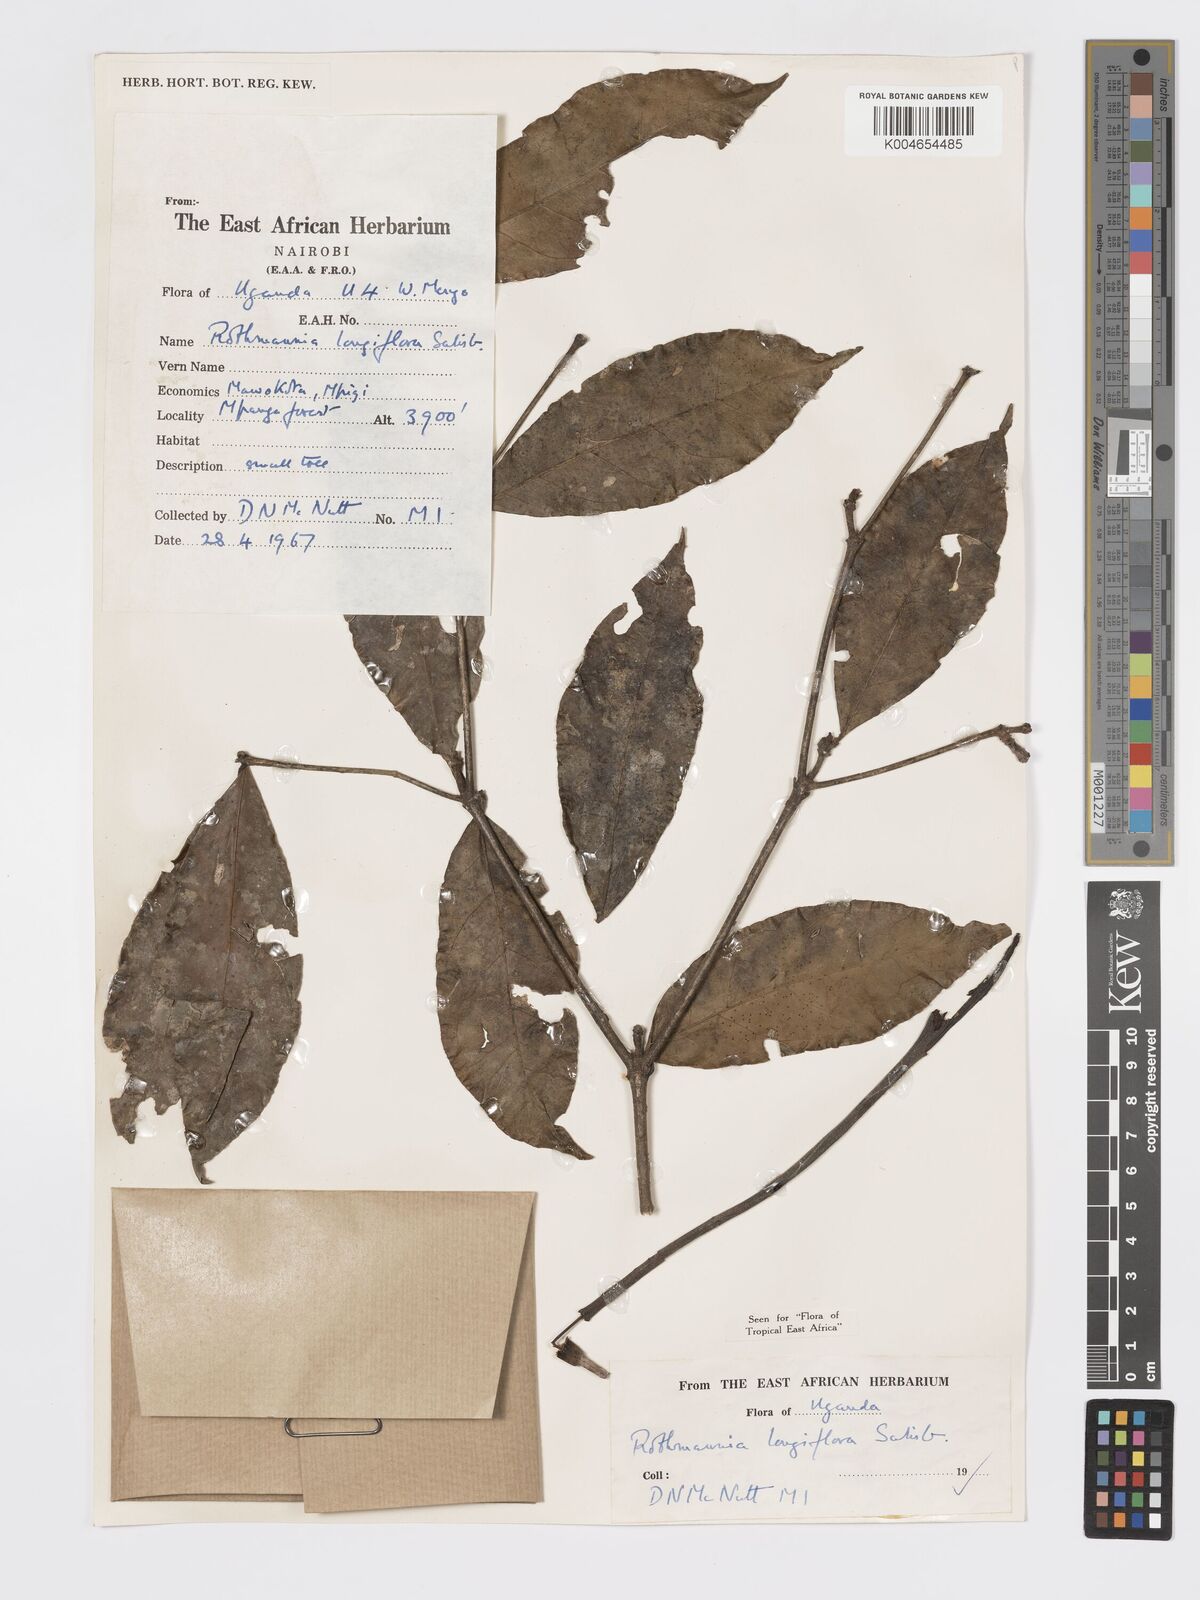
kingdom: Plantae
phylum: Tracheophyta
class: Magnoliopsida
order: Gentianales
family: Rubiaceae
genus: Rothmannia
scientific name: Rothmannia longiflora
